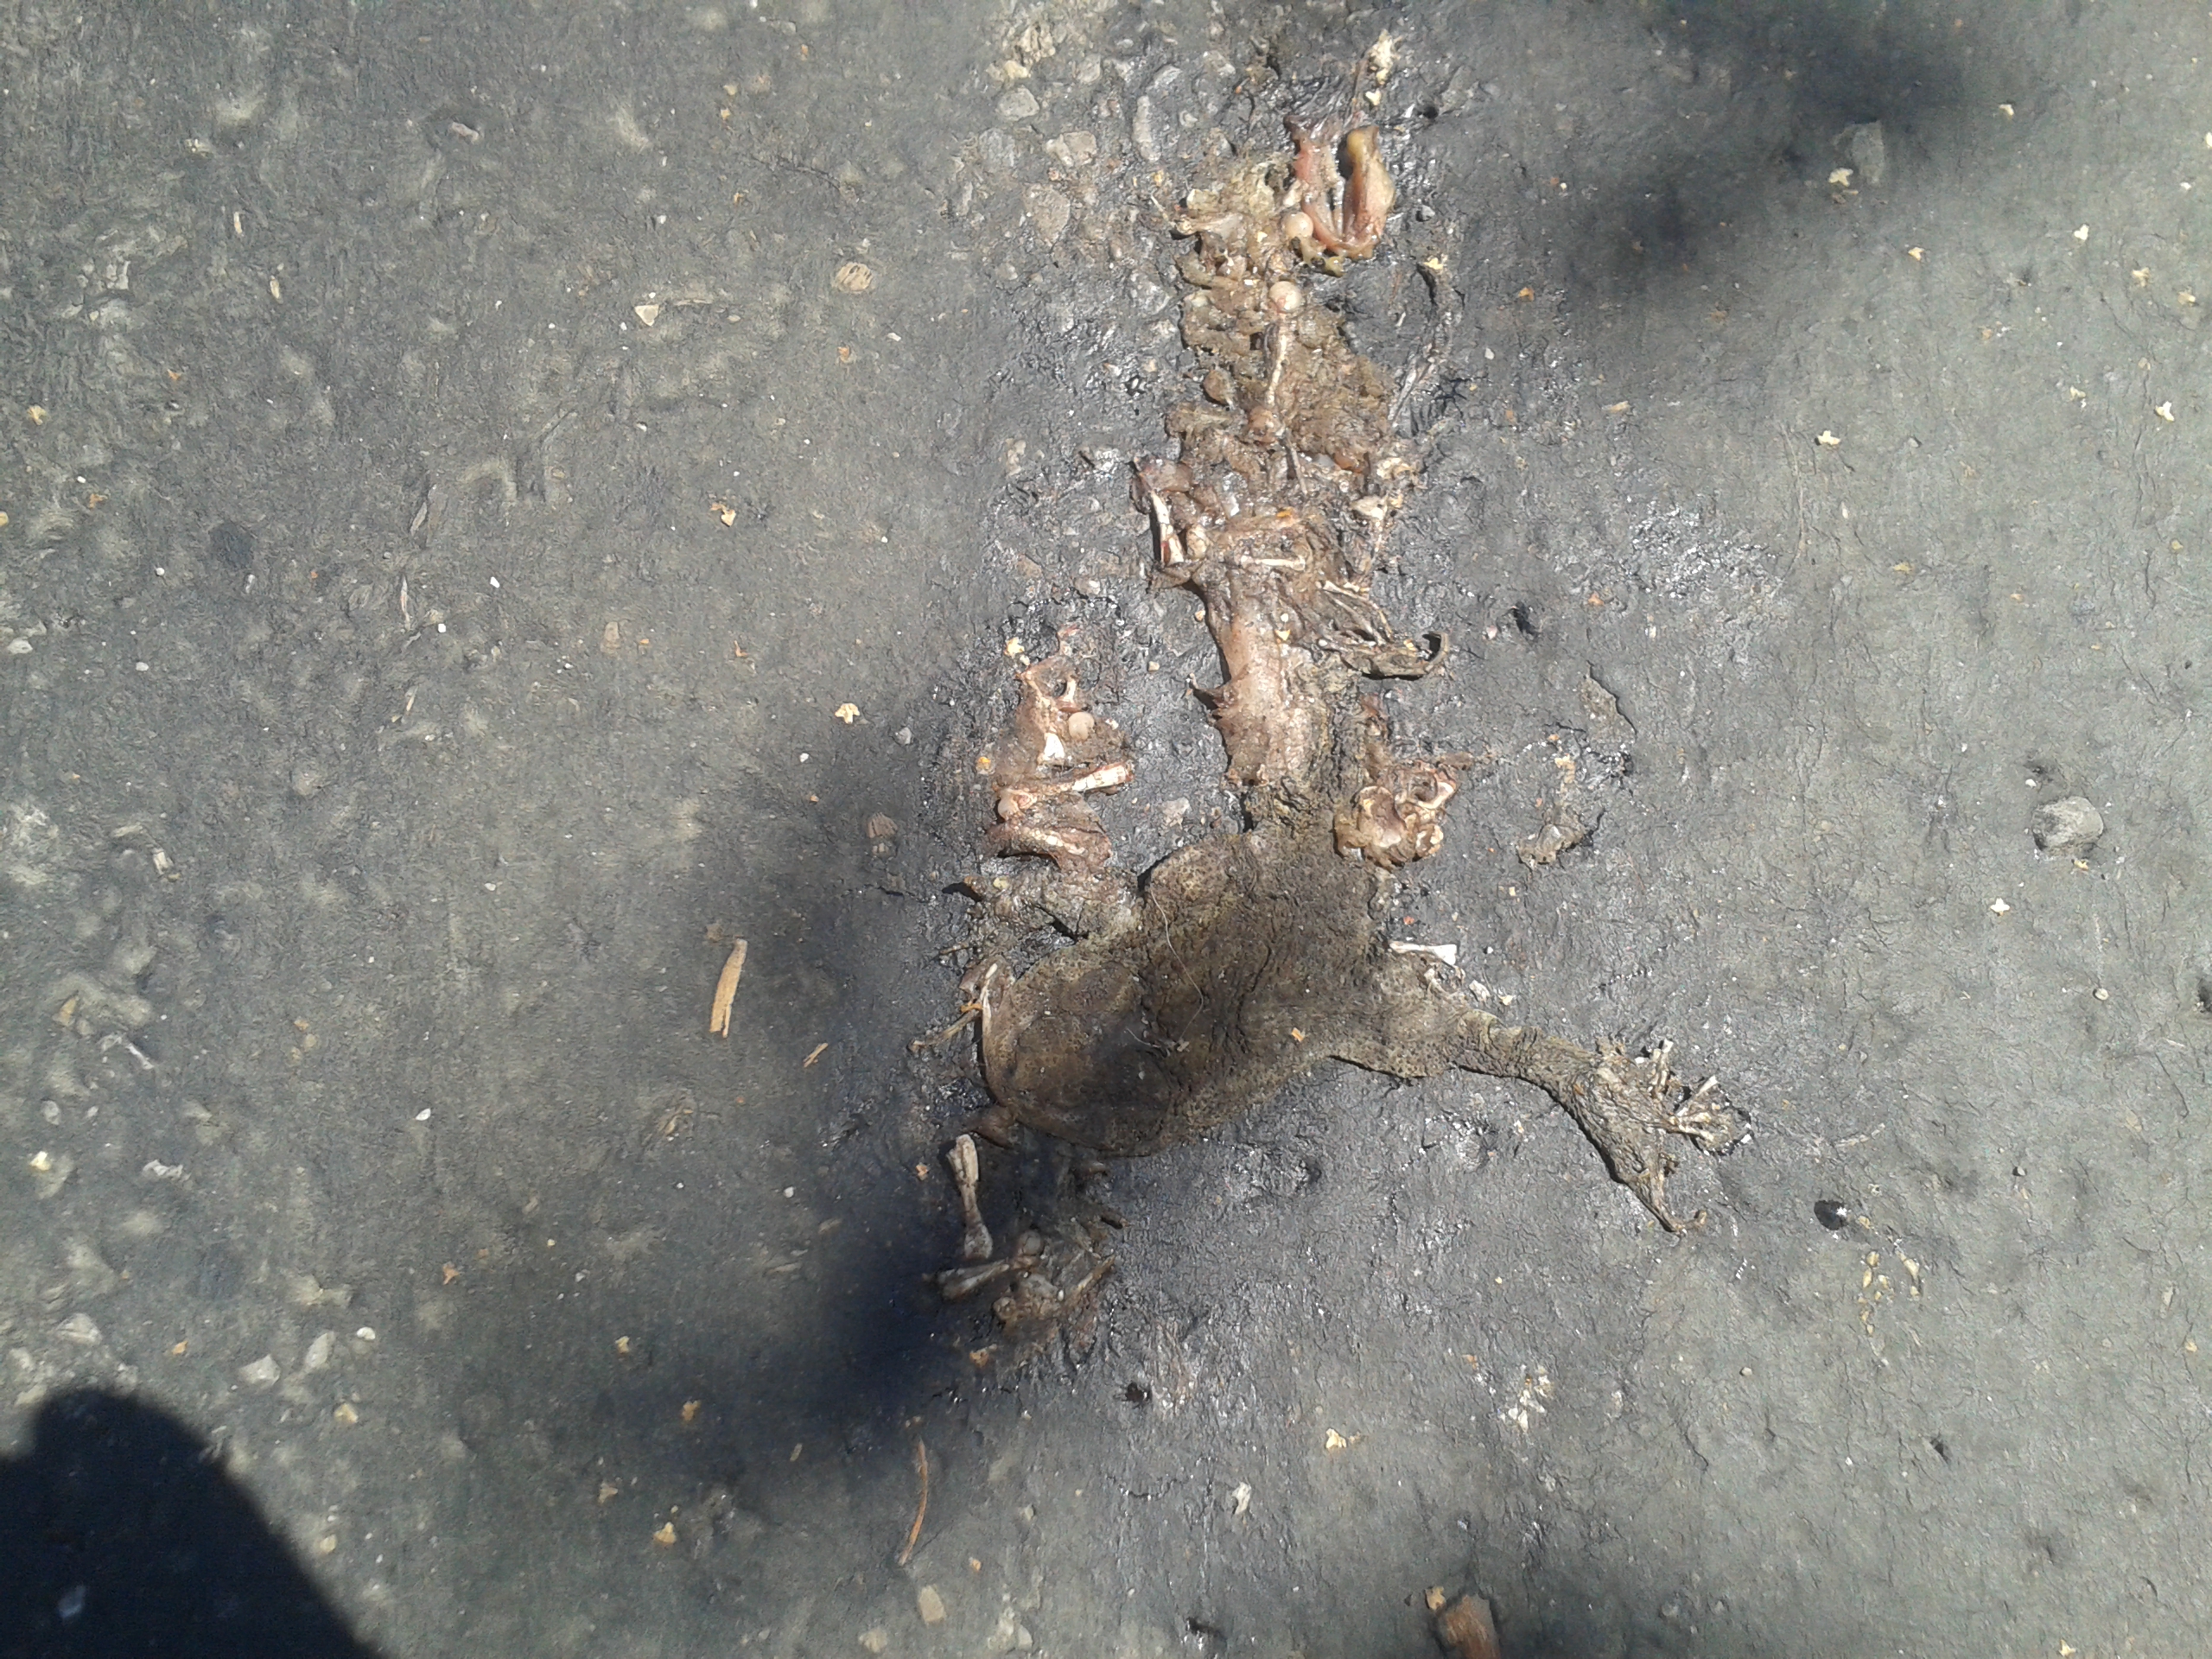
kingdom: Animalia
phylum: Chordata
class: Amphibia
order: Anura
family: Bufonidae
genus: Bufo
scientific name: Bufo bufo
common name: Common toad
